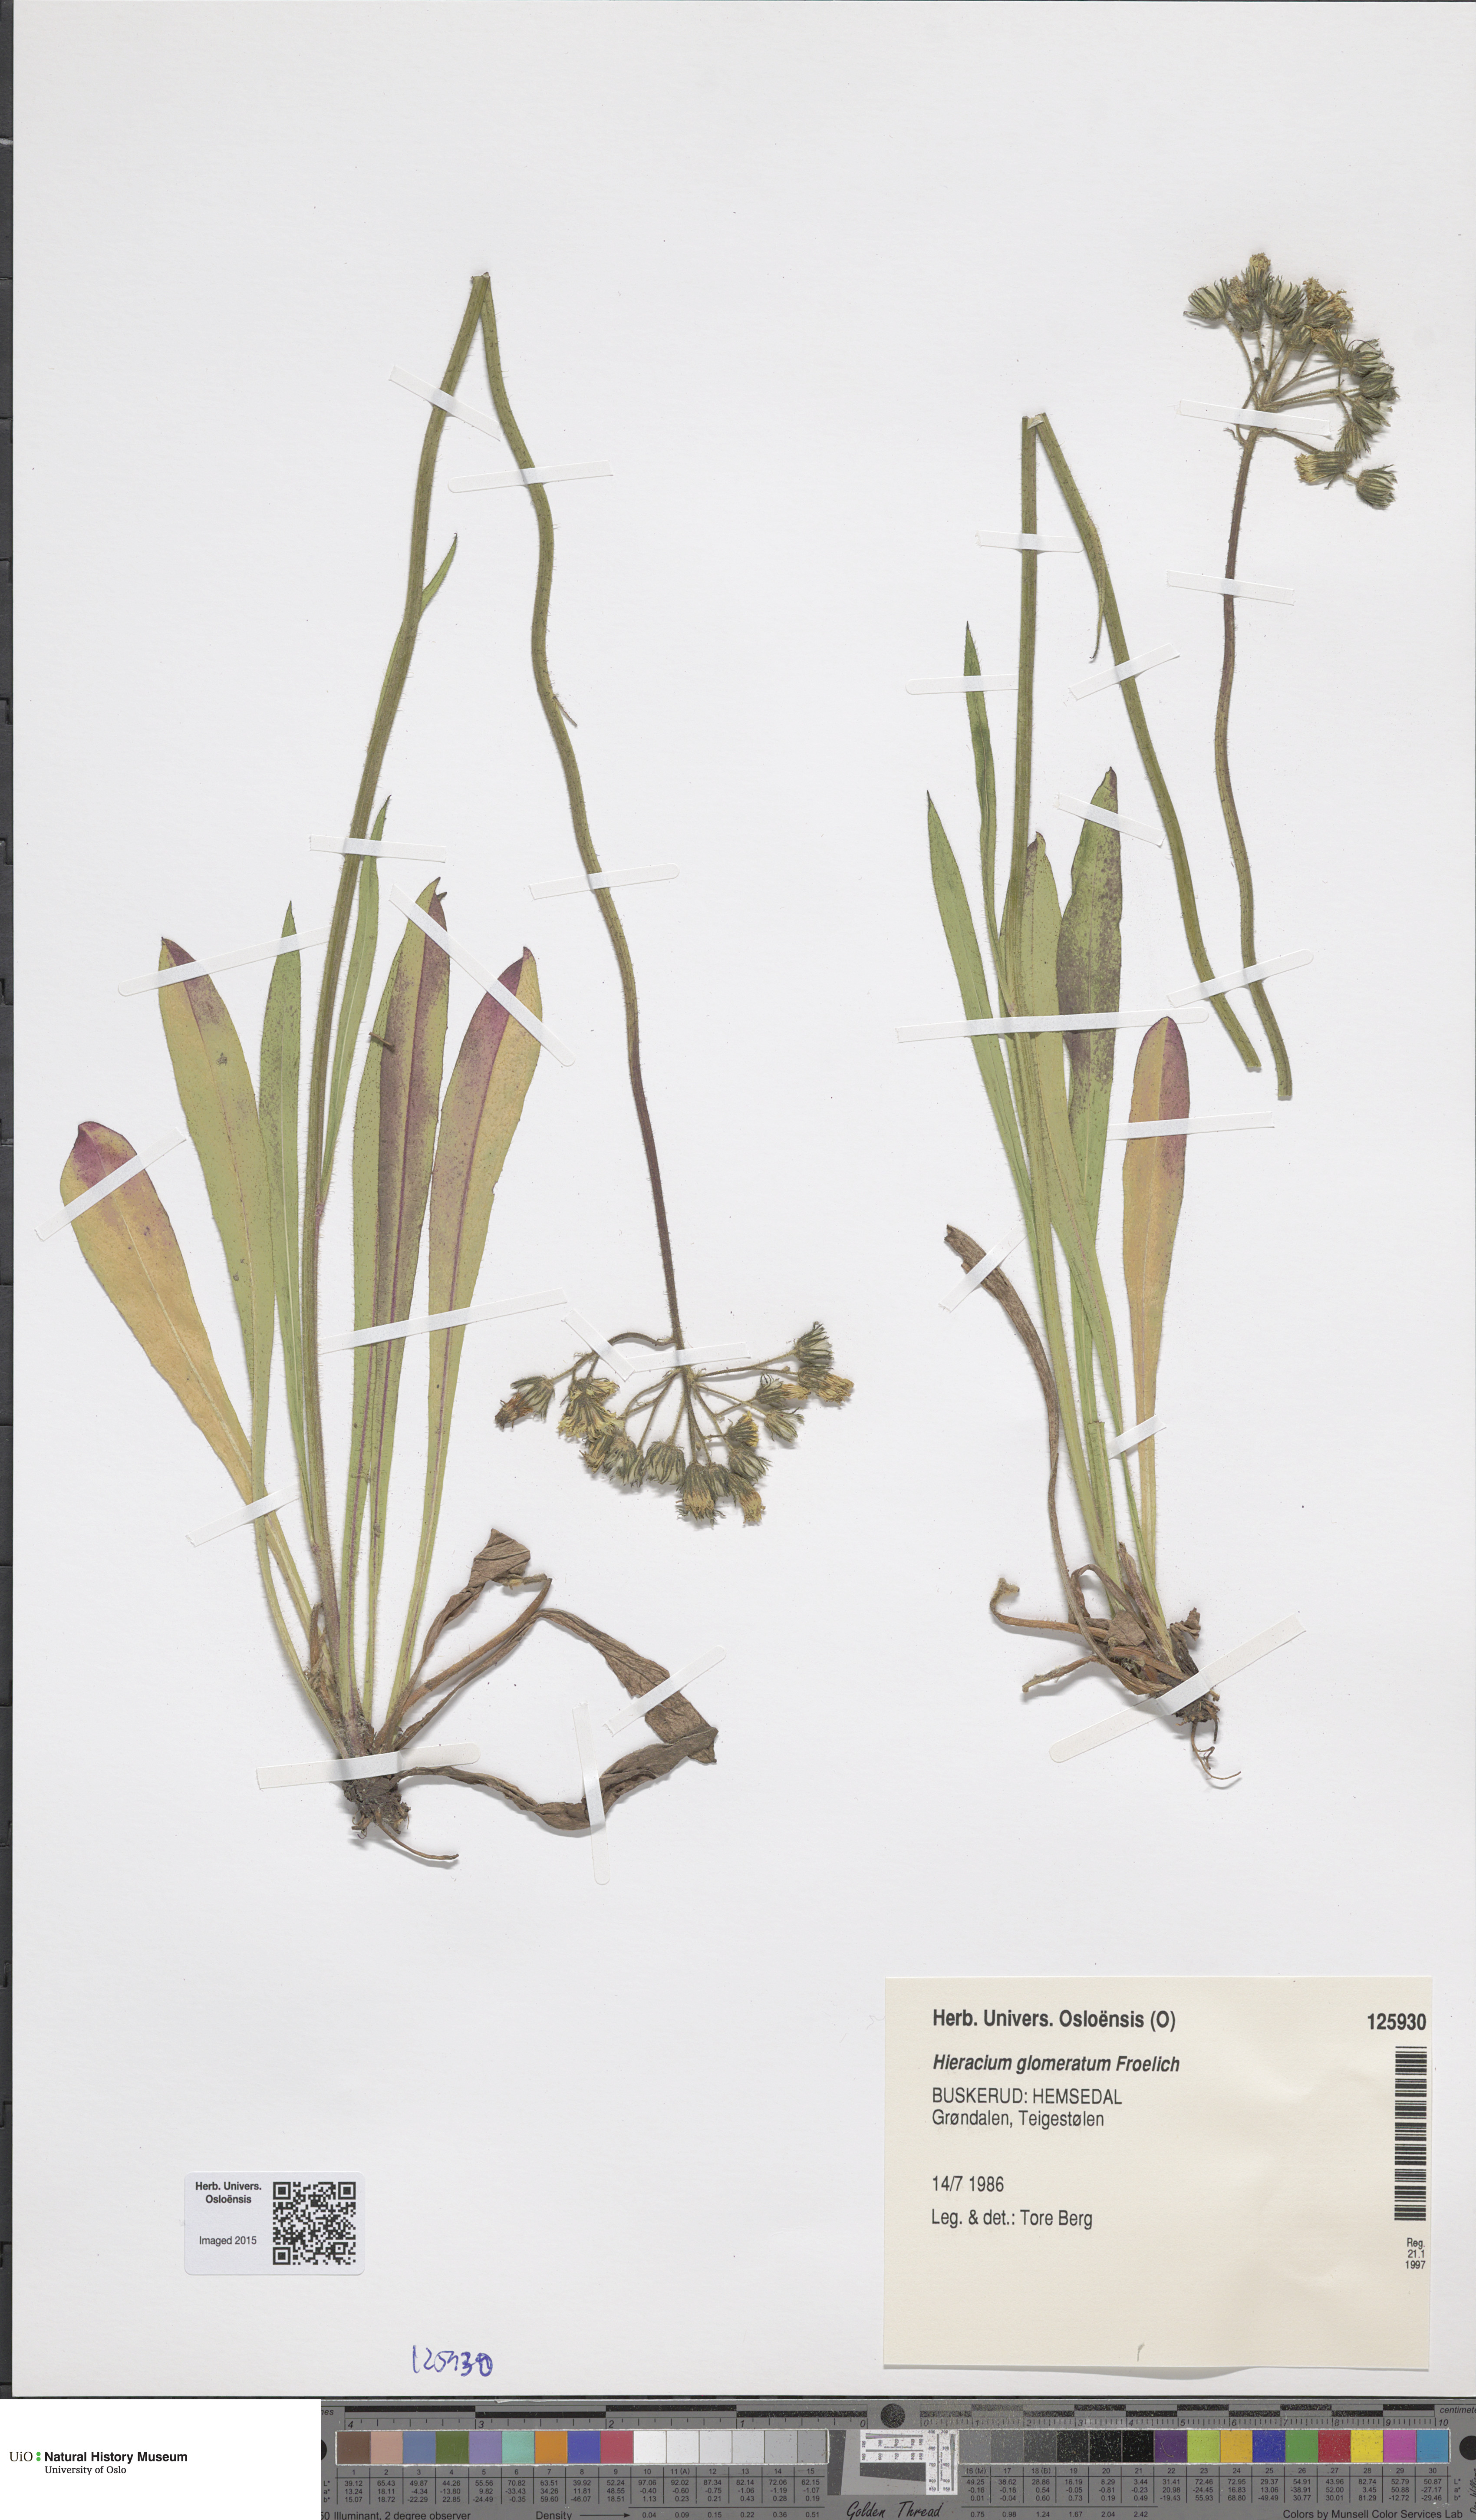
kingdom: Plantae
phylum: Tracheophyta
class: Magnoliopsida
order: Asterales
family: Asteraceae
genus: Pilosella
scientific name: Pilosella glomerata
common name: Queen devil hawkweed
